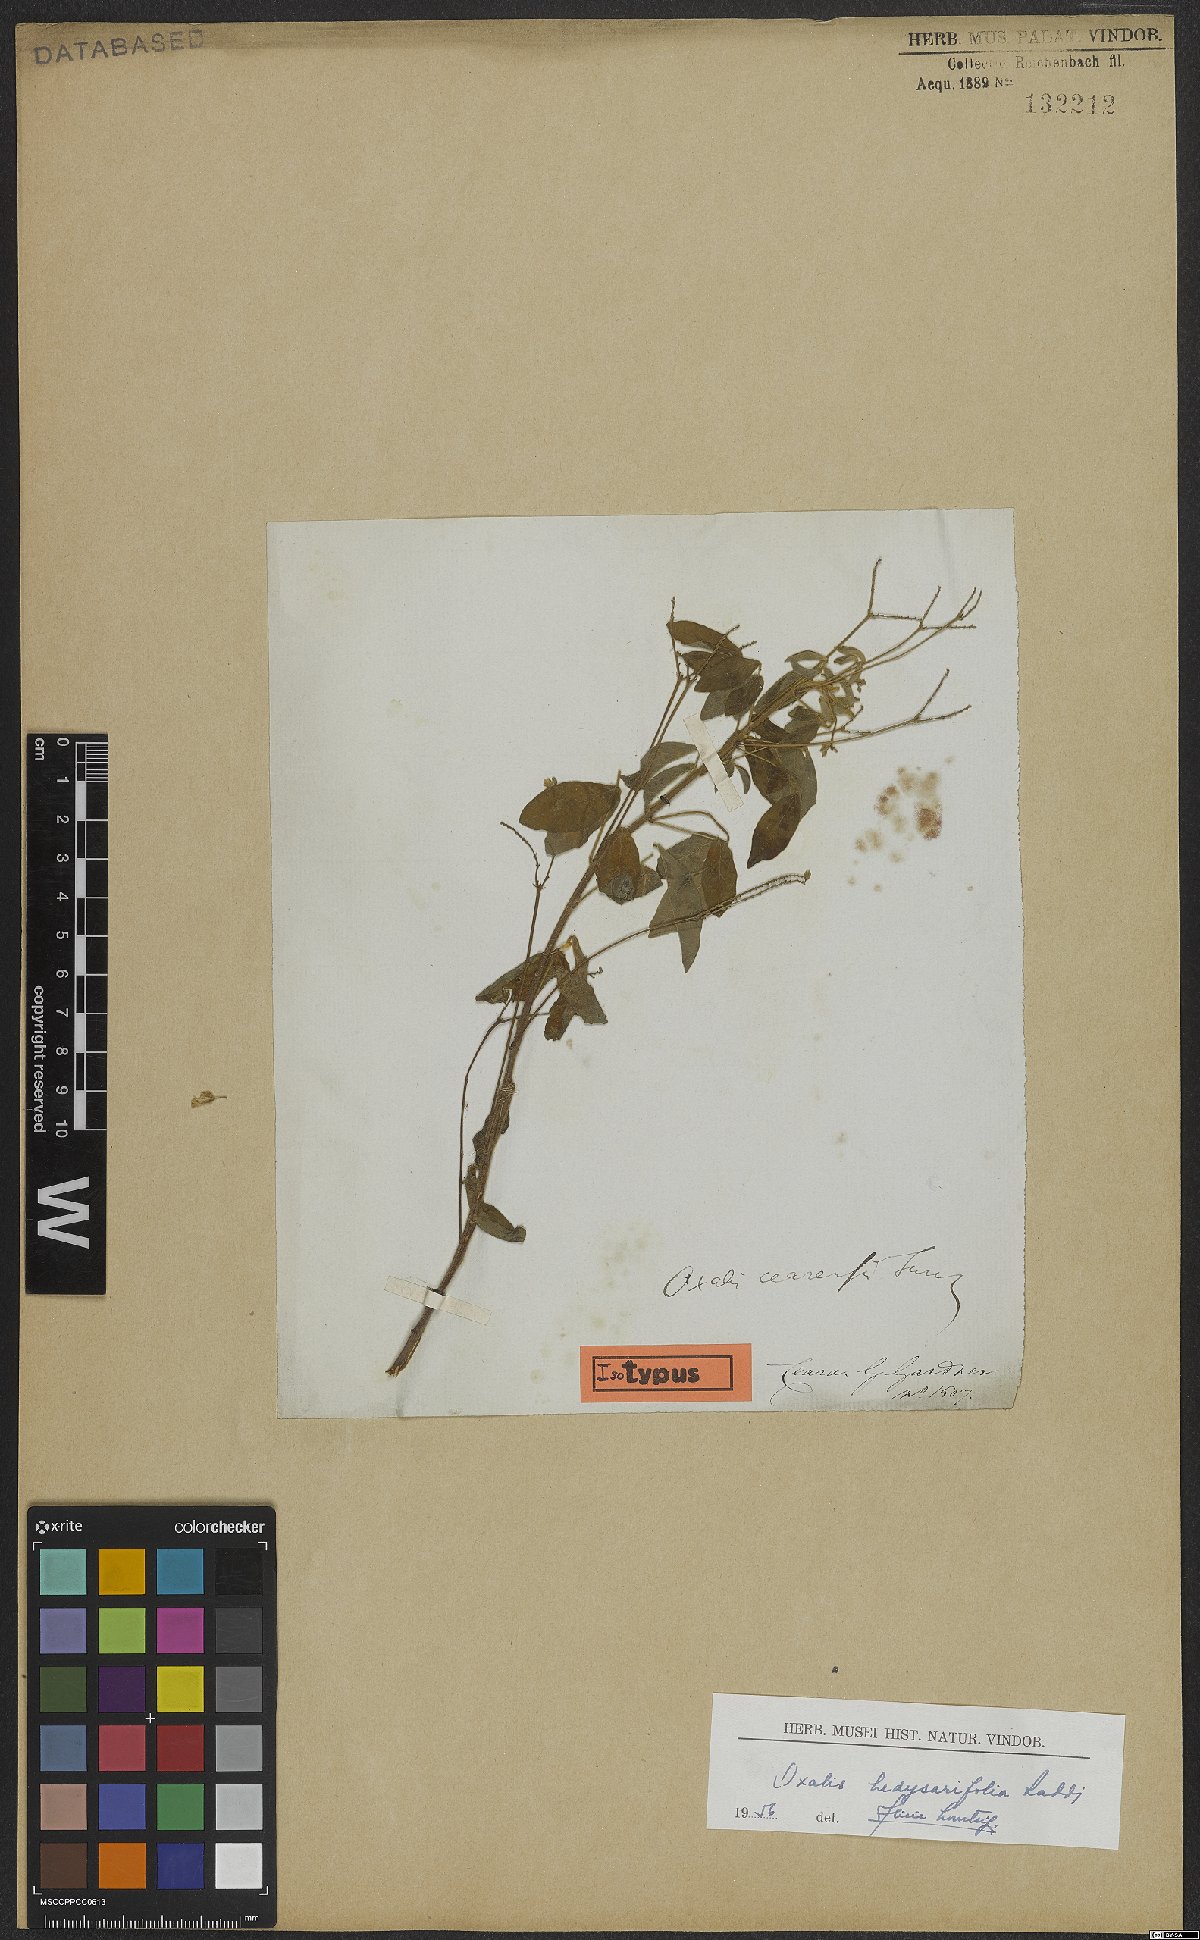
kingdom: Plantae
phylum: Tracheophyta
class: Magnoliopsida
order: Oxalidales
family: Oxalidaceae
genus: Oxalis
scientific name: Oxalis frutescens
